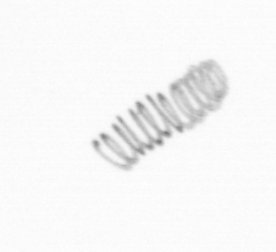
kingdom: Chromista
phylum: Ochrophyta
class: Bacillariophyceae
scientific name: Bacillariophyceae
